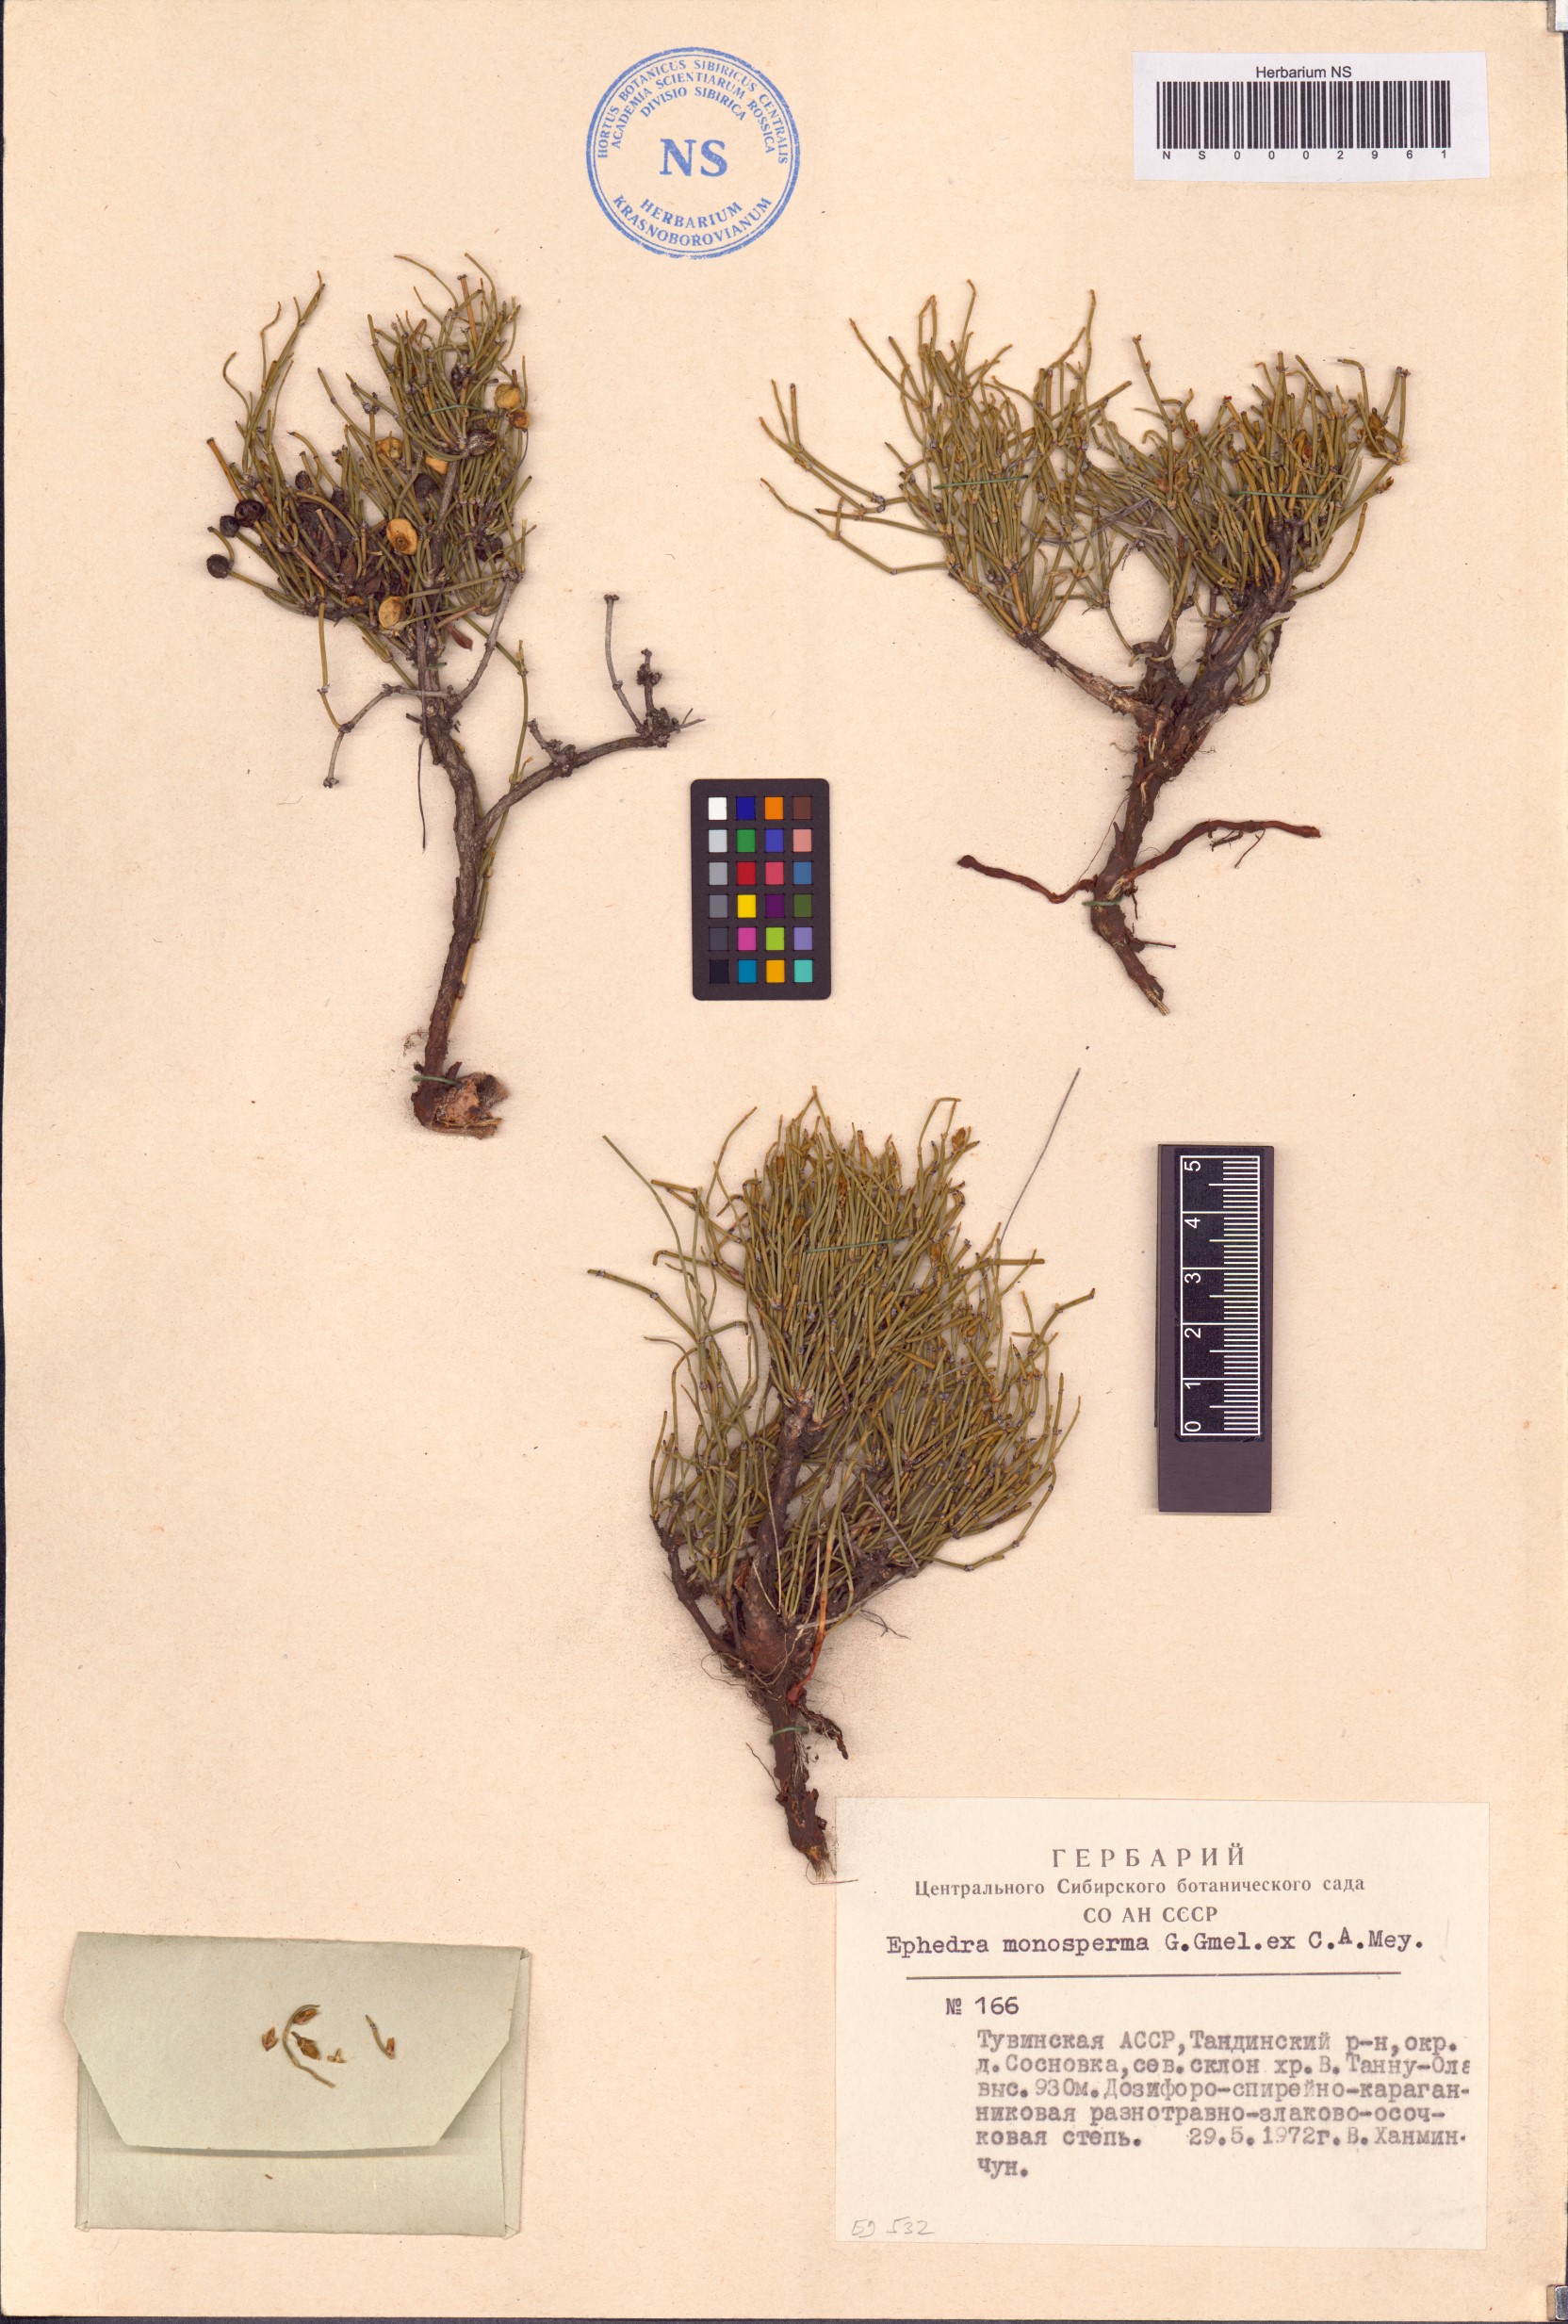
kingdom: Plantae
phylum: Tracheophyta
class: Gnetopsida
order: Ephedrales
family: Ephedraceae
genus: Ephedra
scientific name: Ephedra monosperma
